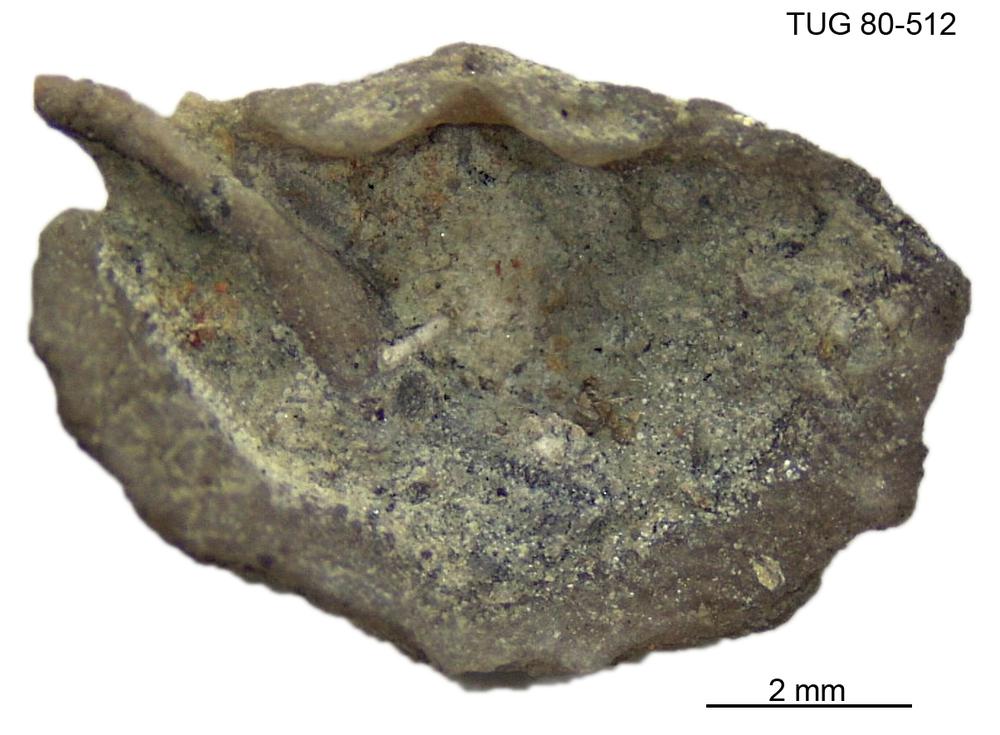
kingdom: Animalia
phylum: Brachiopoda
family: Sowerbyellidae
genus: Sowerbyella
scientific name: Sowerbyella
